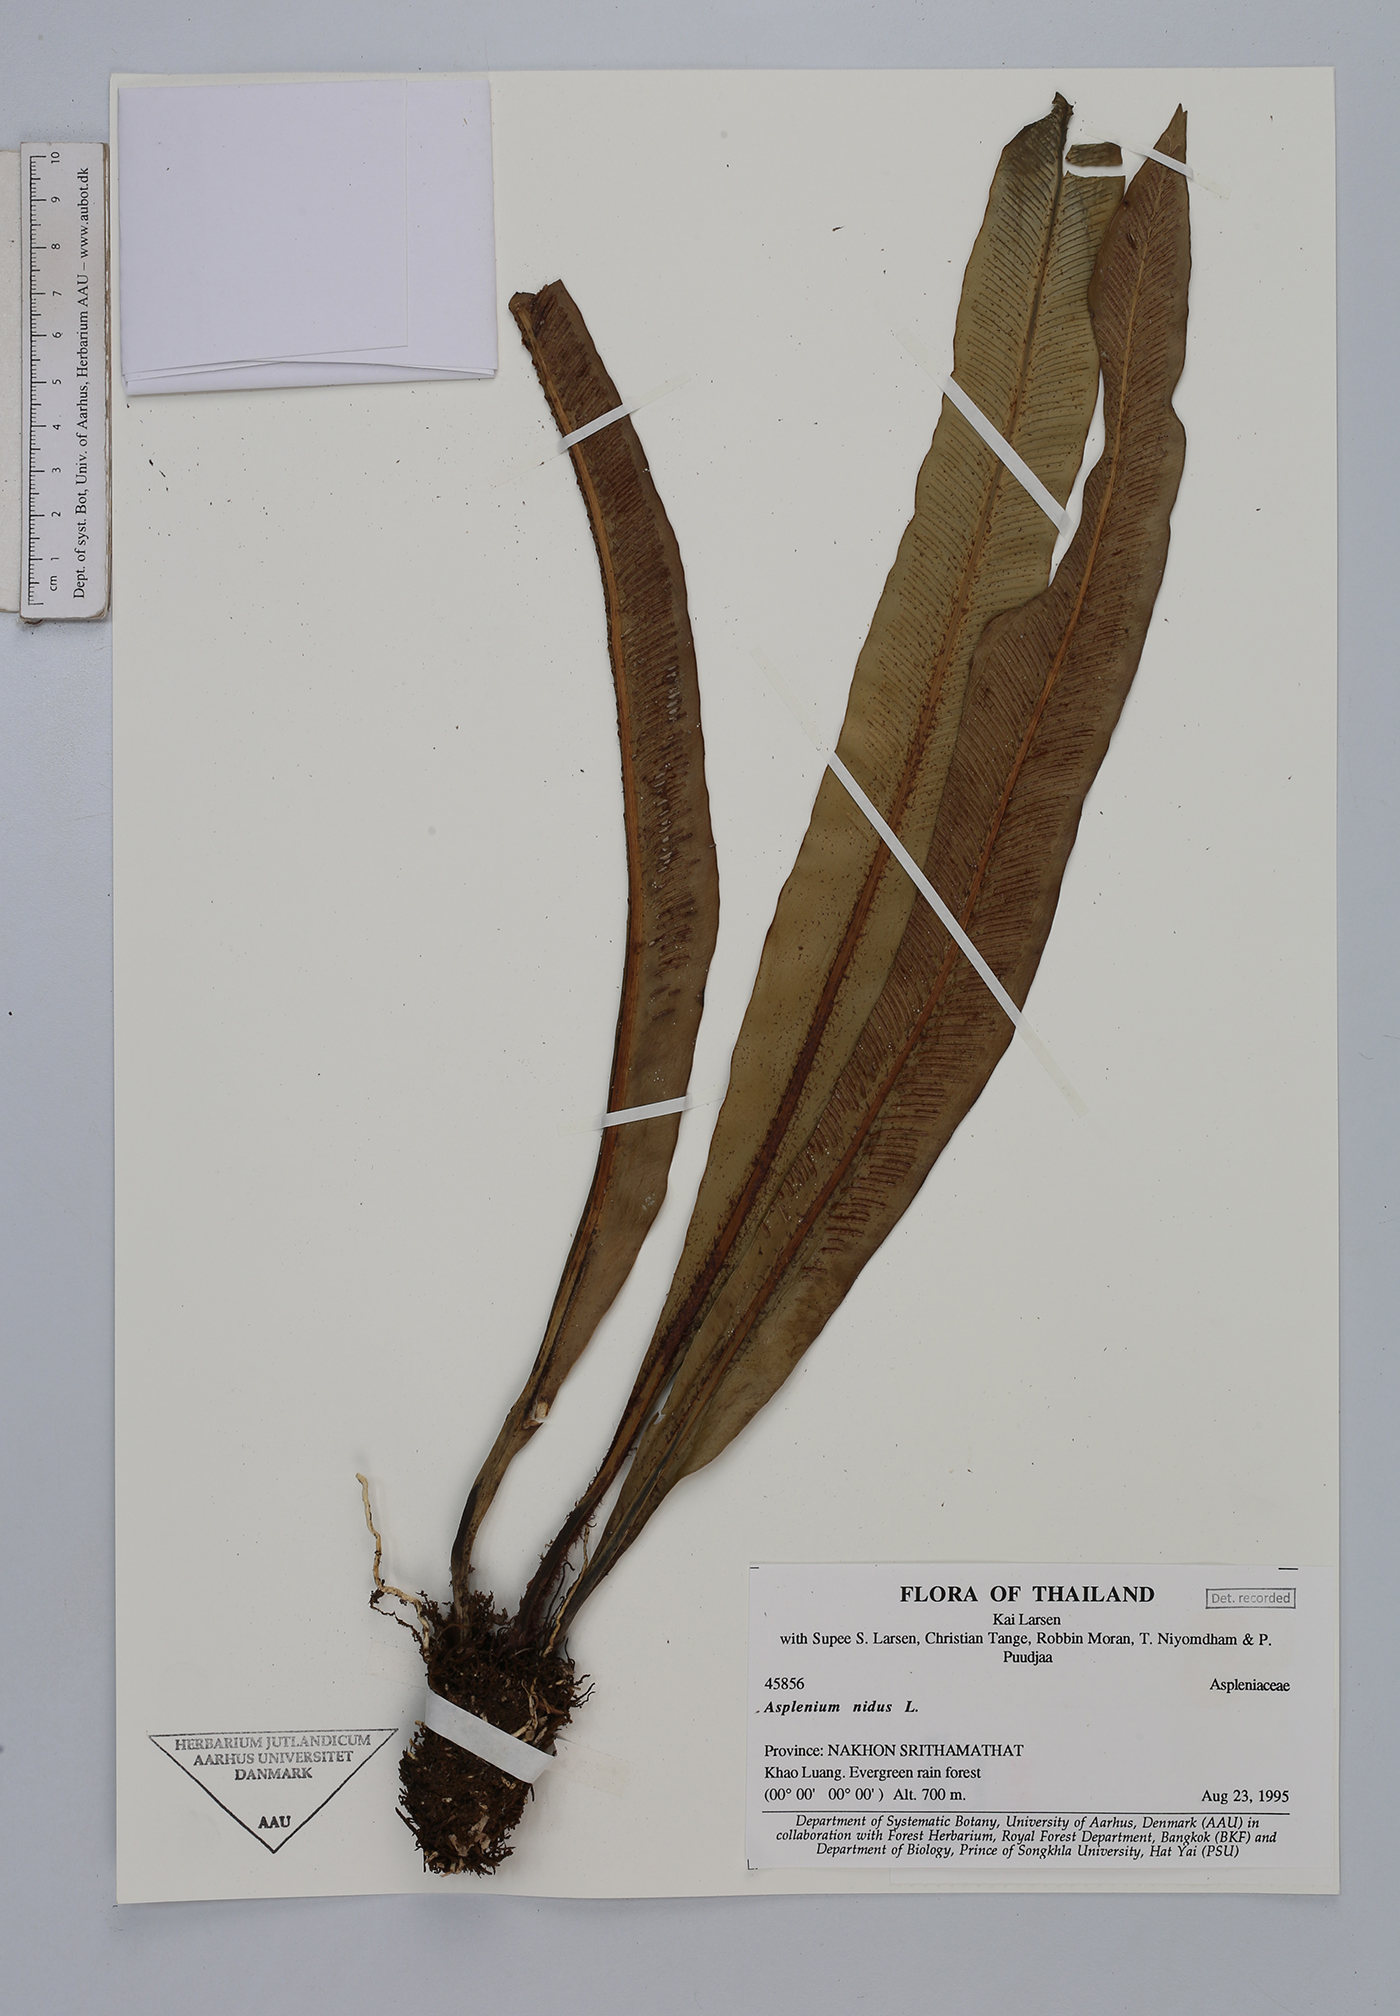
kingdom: Plantae
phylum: Tracheophyta
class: Polypodiopsida
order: Polypodiales
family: Aspleniaceae
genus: Asplenium
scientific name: Asplenium nidus
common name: Bird's-nest fern
